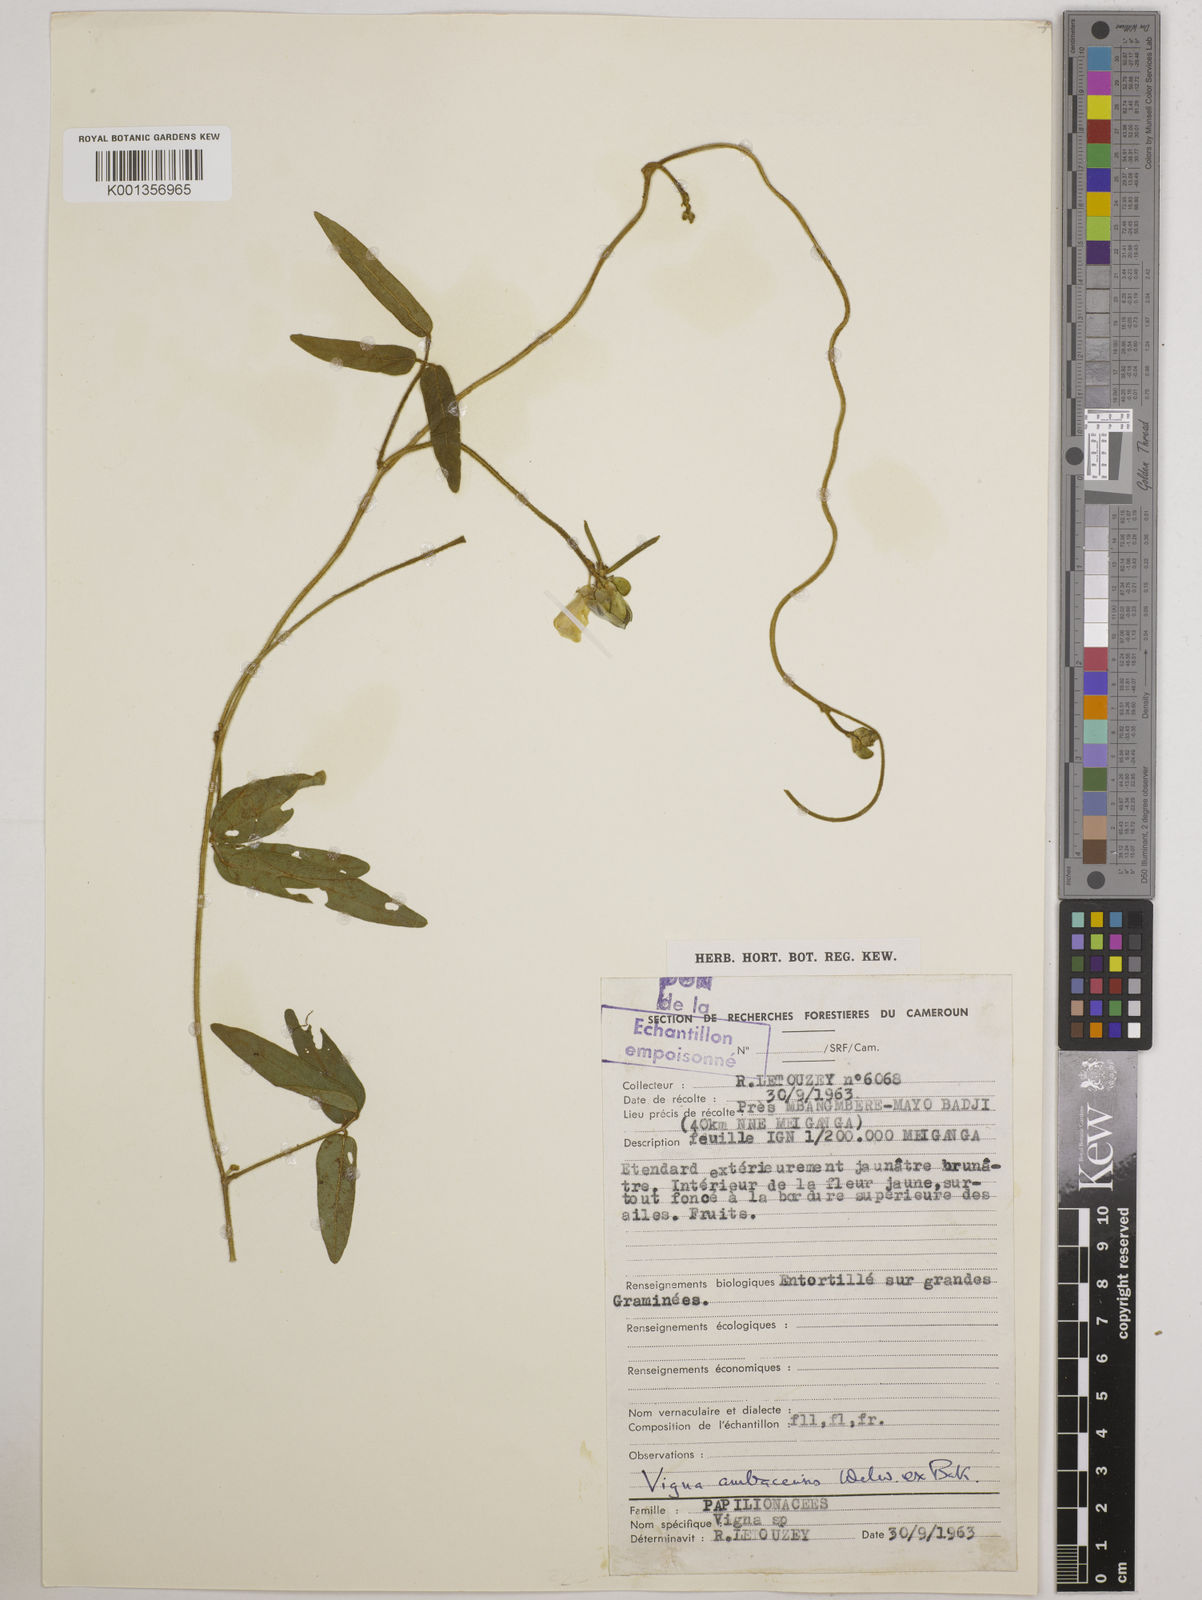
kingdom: Plantae
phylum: Tracheophyta
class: Magnoliopsida
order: Fabales
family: Fabaceae
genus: Vigna
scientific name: Vigna ambacensis
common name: Tsarkiyan zomo
